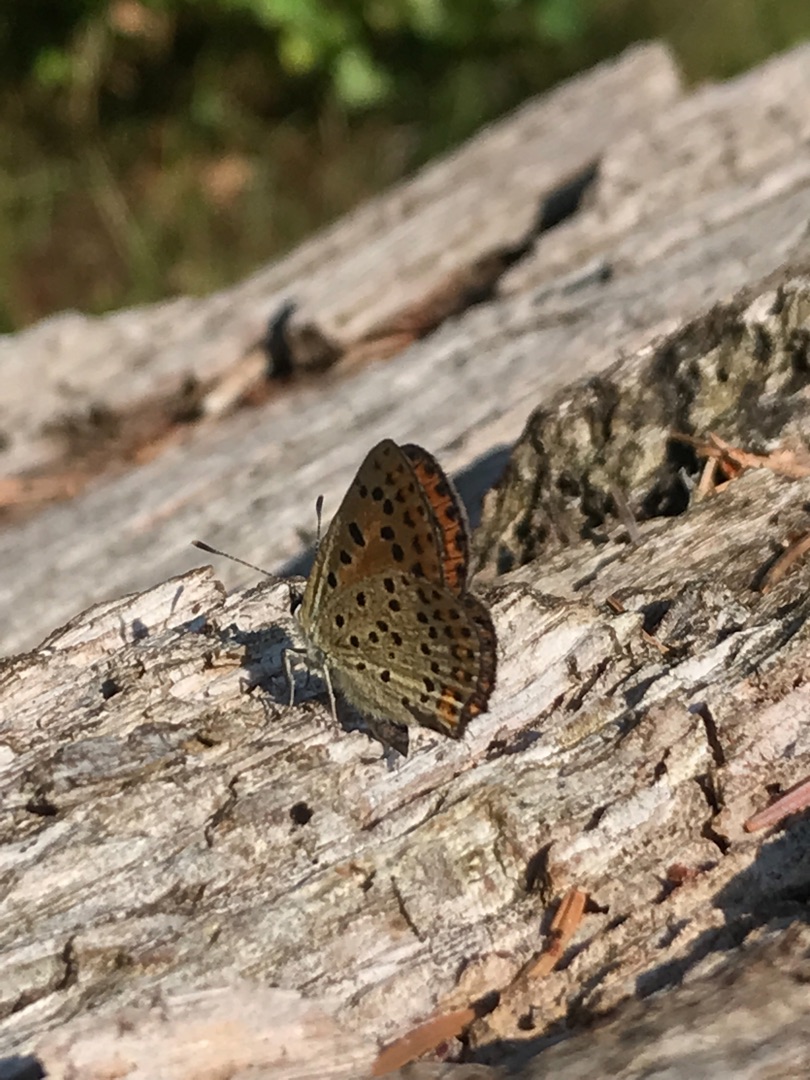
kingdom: Animalia
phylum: Arthropoda
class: Insecta
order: Lepidoptera
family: Lycaenidae
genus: Loweia
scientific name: Loweia tityrus
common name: Sort ildfugl
